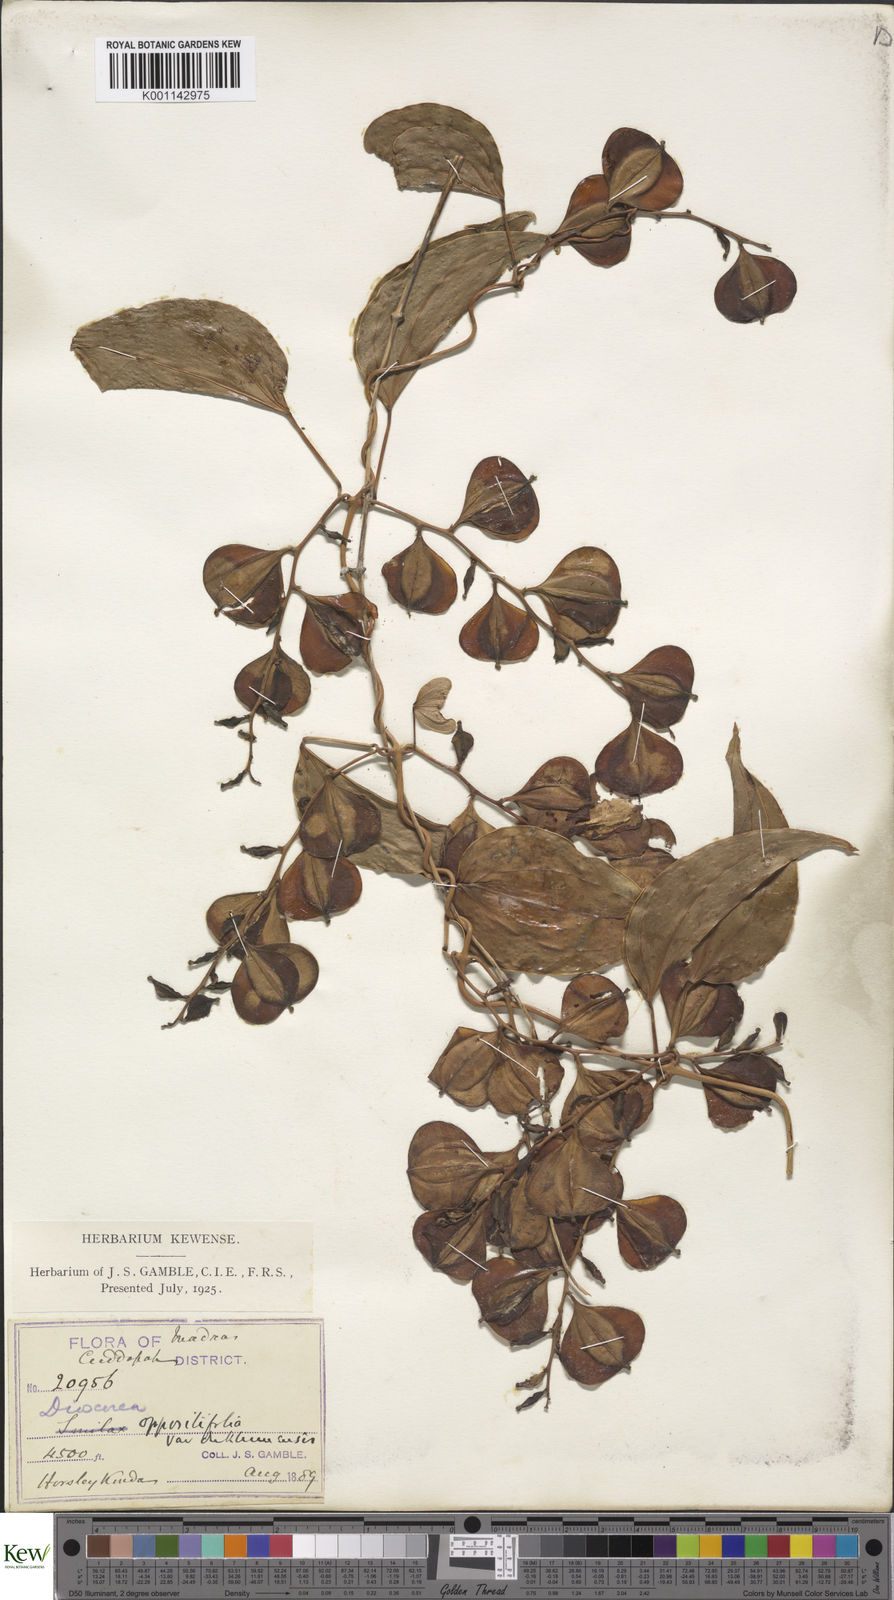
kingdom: Plantae
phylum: Tracheophyta
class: Liliopsida
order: Dioscoreales
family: Dioscoreaceae
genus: Dioscorea
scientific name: Dioscorea oppositifolia
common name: Chinese yam
